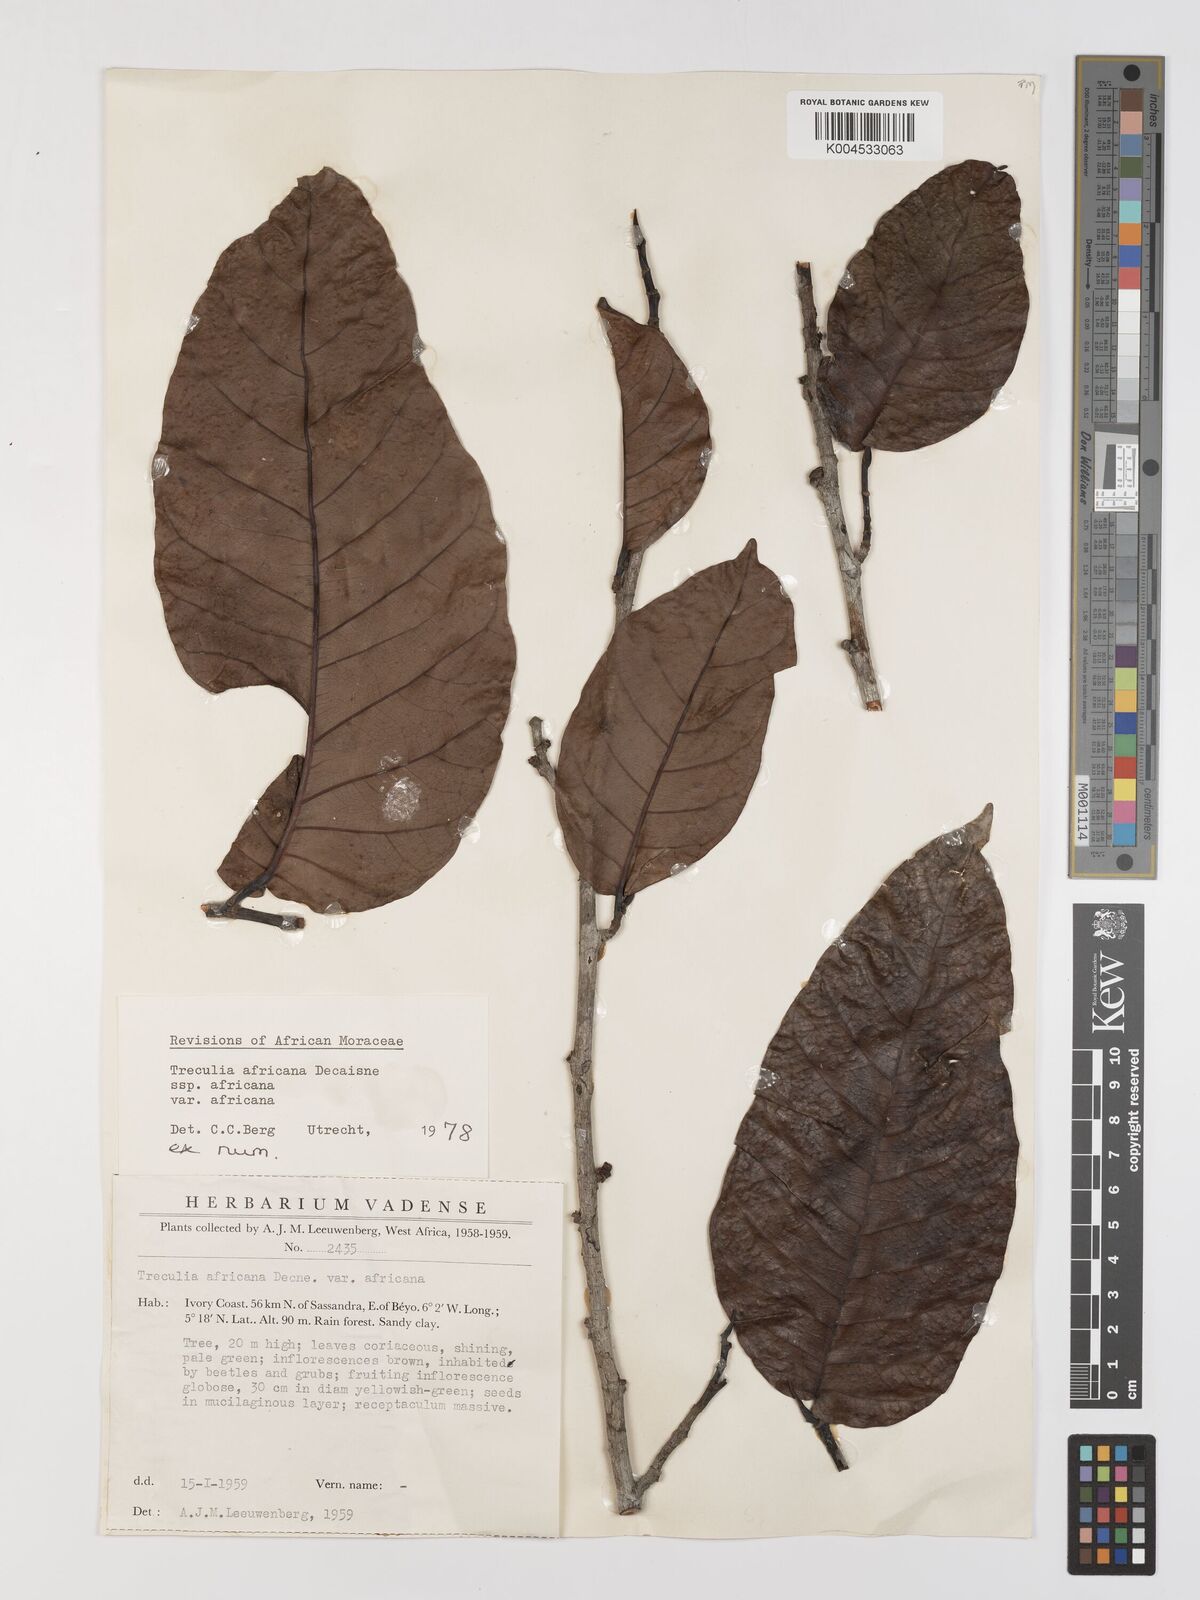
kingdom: Plantae
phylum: Tracheophyta
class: Magnoliopsida
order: Rosales
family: Moraceae
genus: Treculia
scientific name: Treculia africana
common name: African breadfruit
